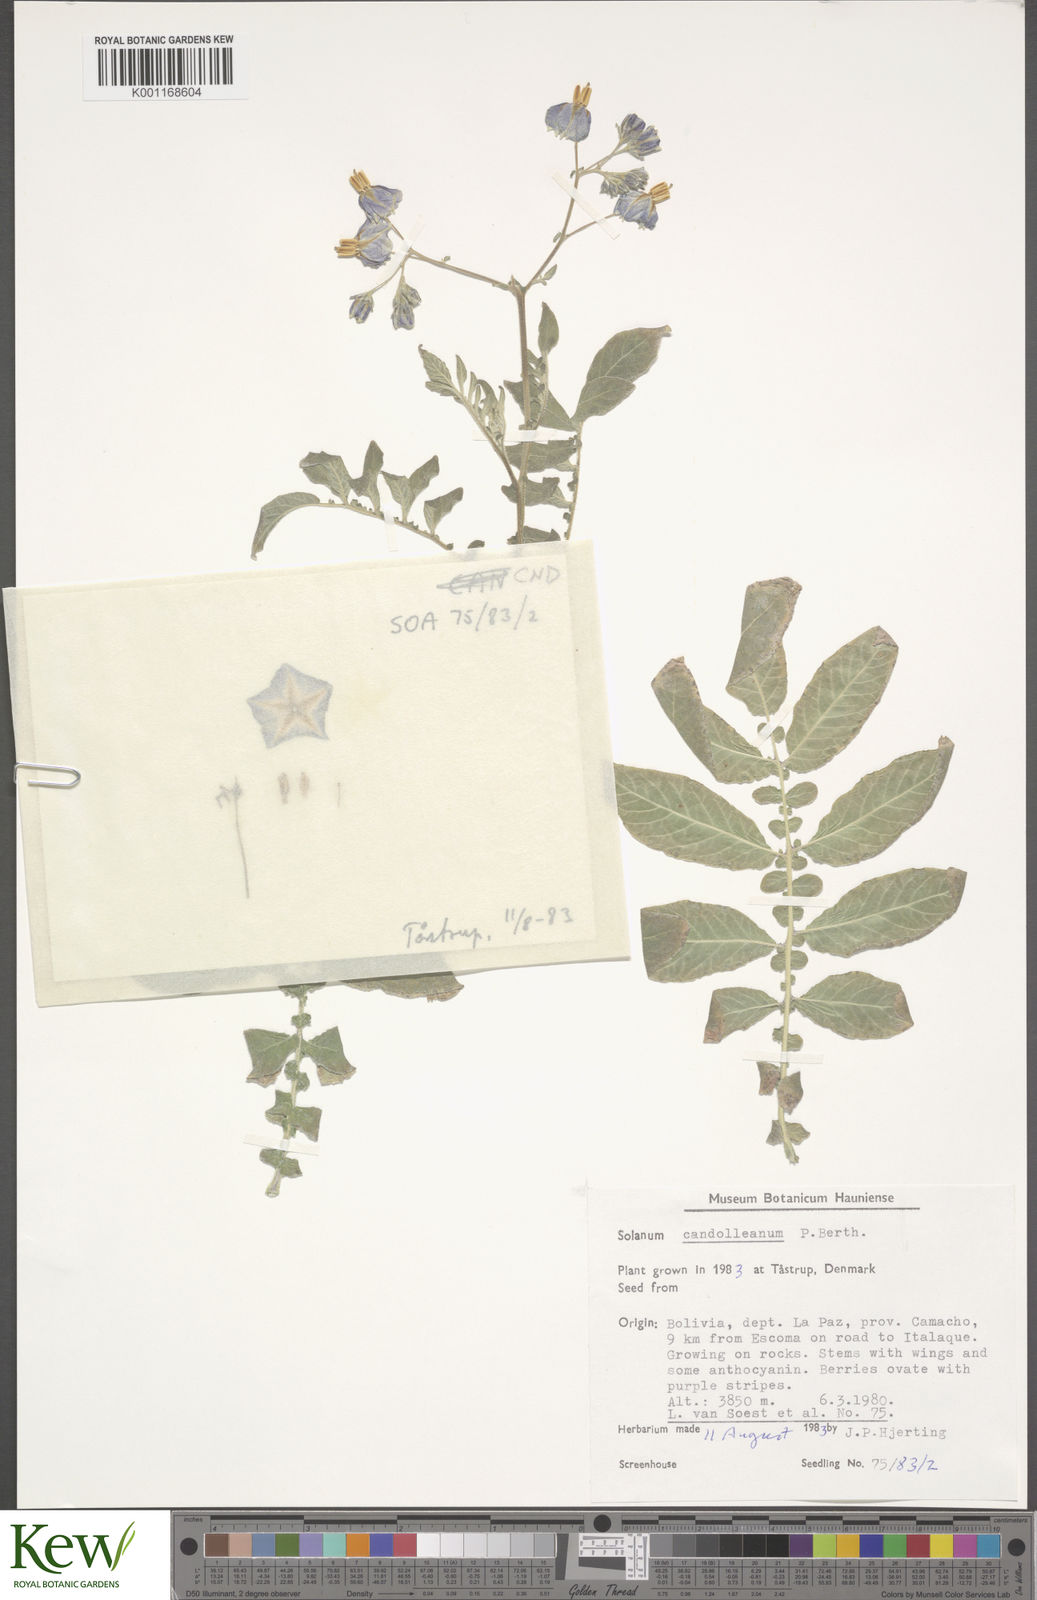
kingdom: Plantae
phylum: Tracheophyta
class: Magnoliopsida
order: Solanales
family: Solanaceae
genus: Solanum
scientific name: Solanum candolleanum
